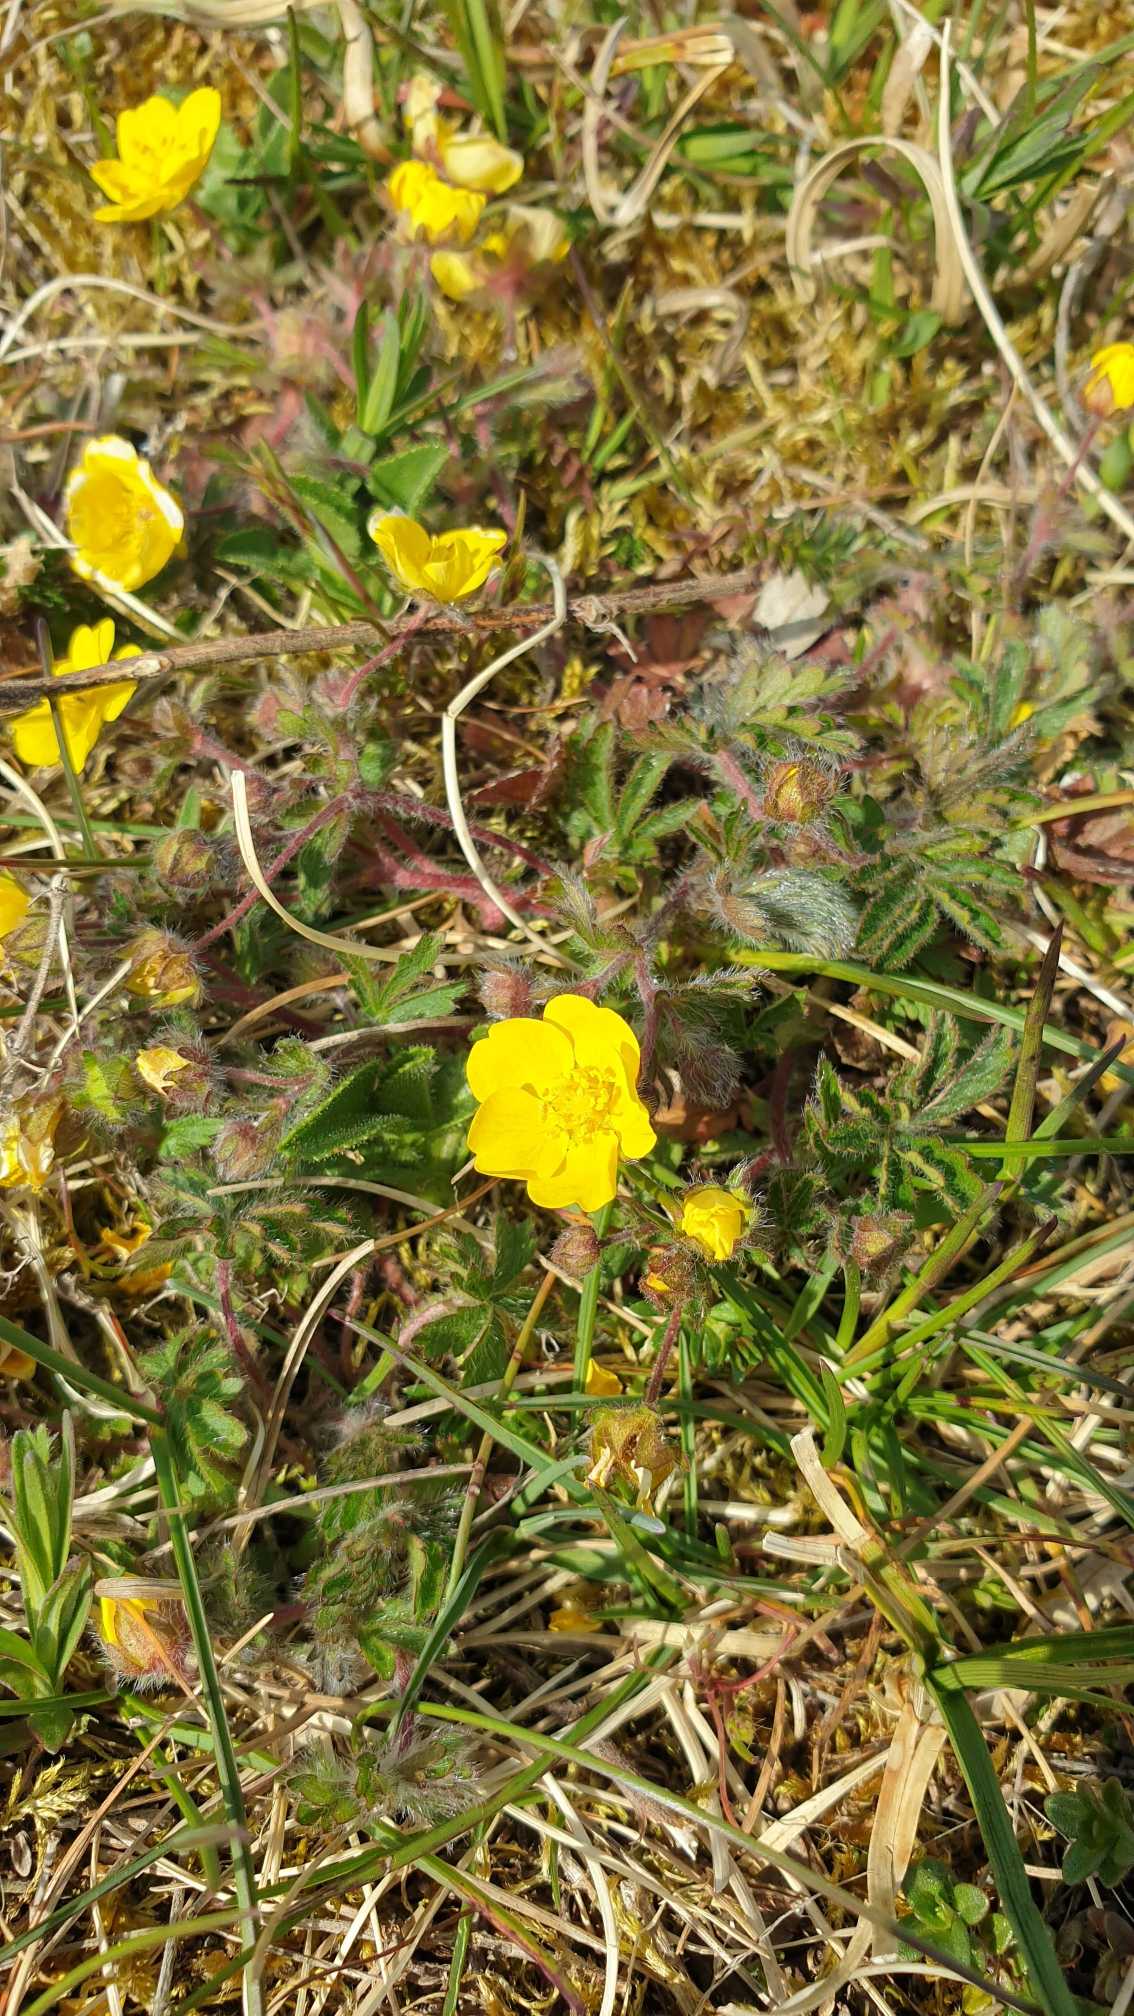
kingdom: Plantae
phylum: Tracheophyta
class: Magnoliopsida
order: Rosales
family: Rosaceae
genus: Potentilla
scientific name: Potentilla heptaphylla
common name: Mat potentil
